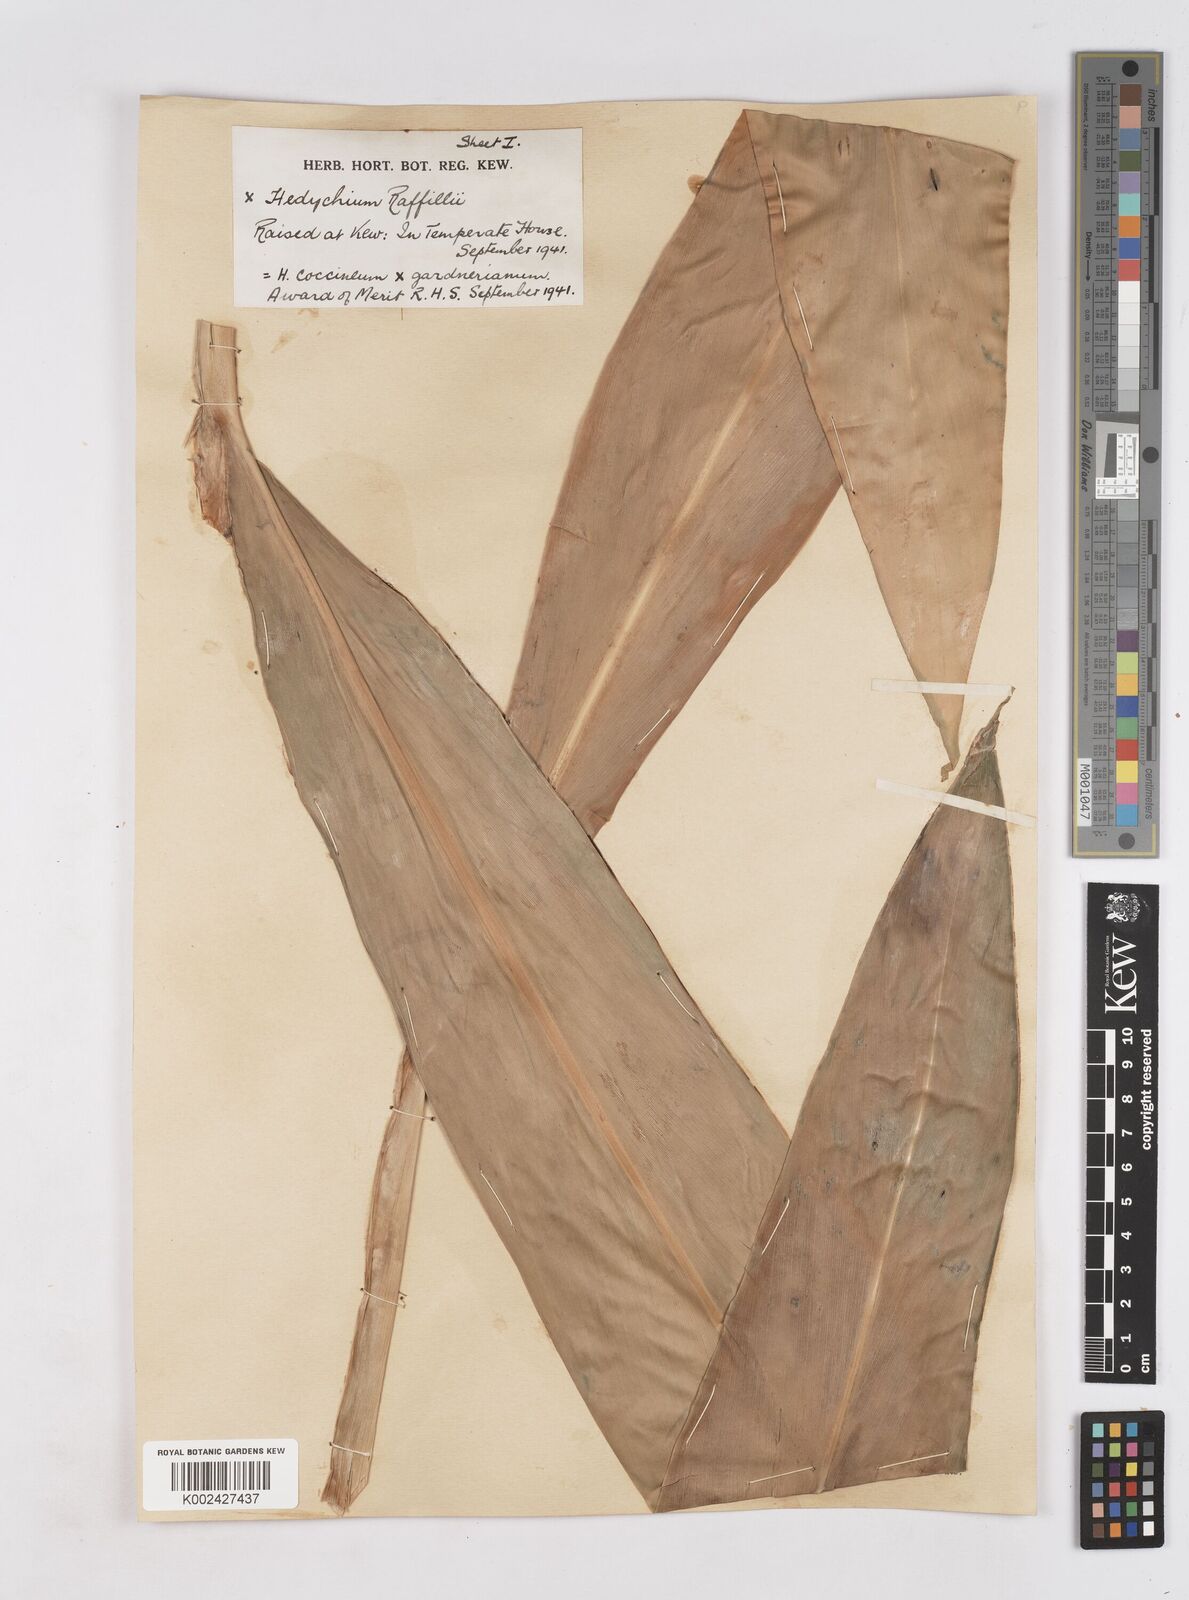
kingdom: Plantae
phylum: Tracheophyta
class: Liliopsida
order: Zingiberales
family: Zingiberaceae
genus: Hedychium
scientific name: Hedychium
